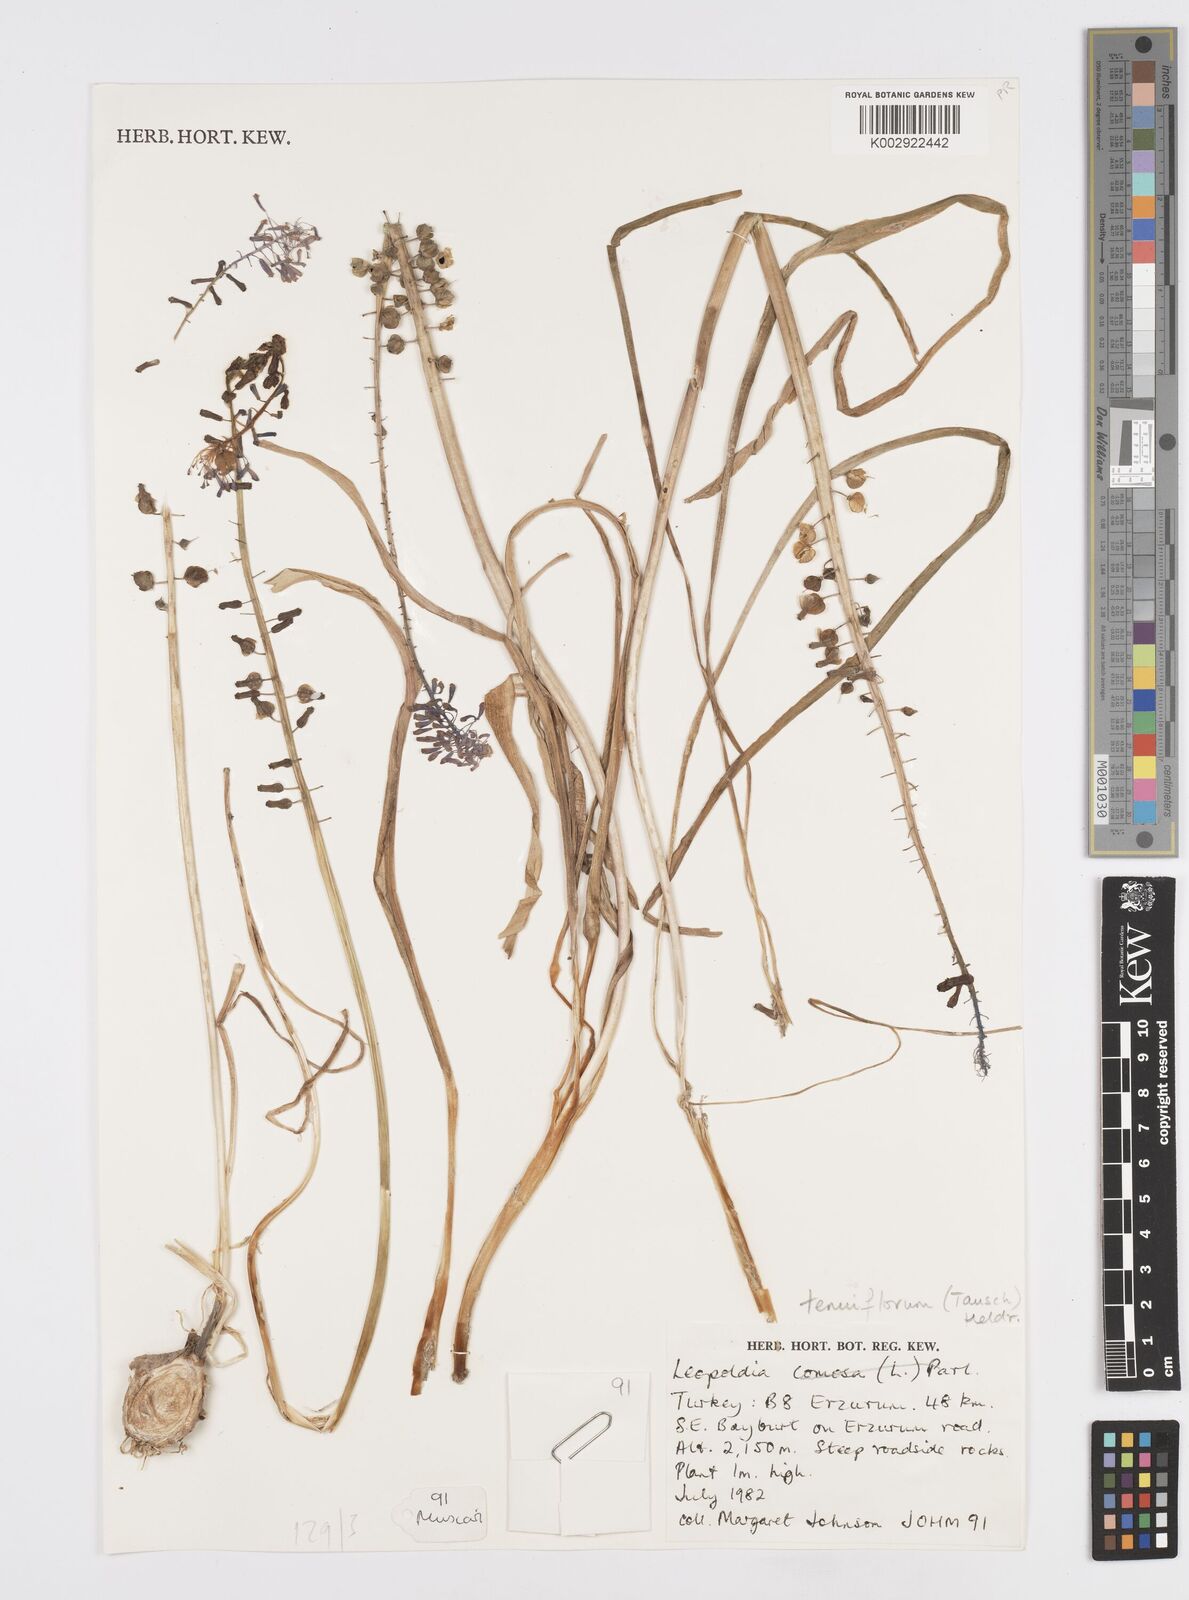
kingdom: Plantae
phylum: Tracheophyta
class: Liliopsida
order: Asparagales
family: Asparagaceae
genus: Muscari
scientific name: Muscari tenuiflorum
